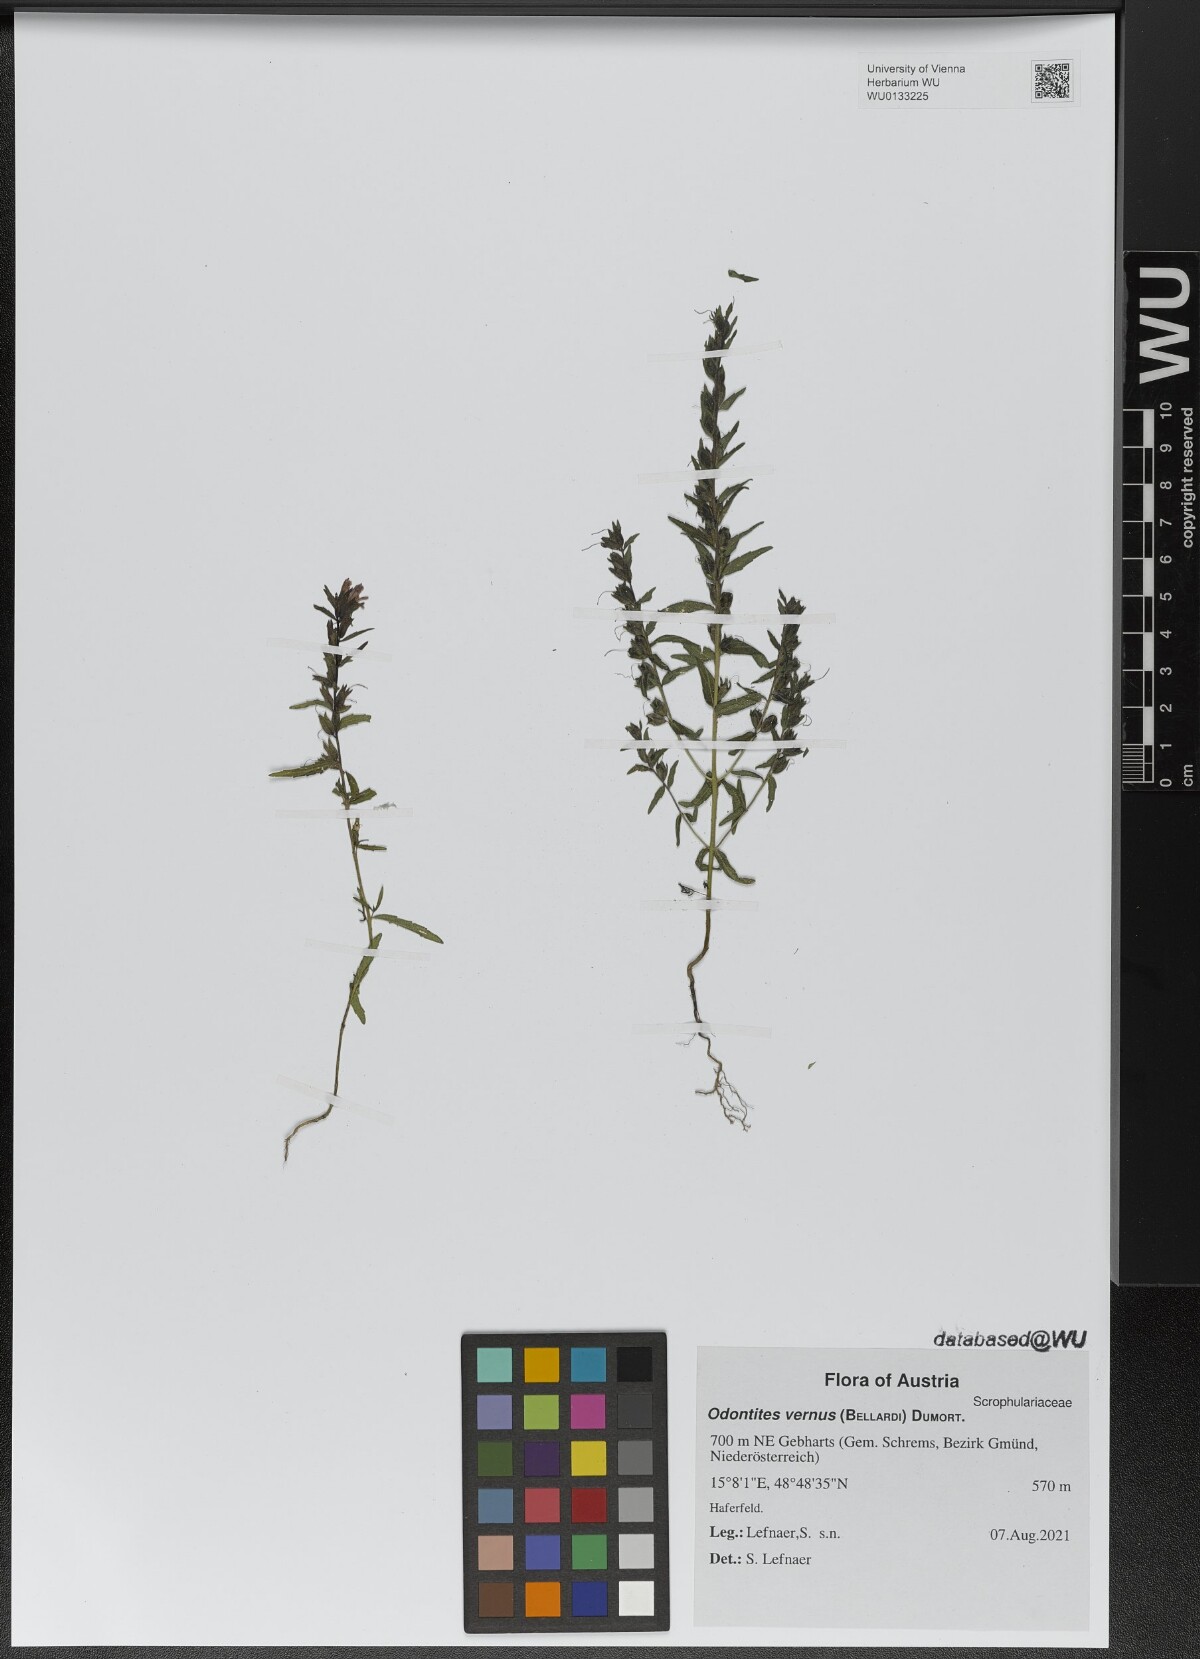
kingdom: Plantae
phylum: Tracheophyta
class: Magnoliopsida
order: Lamiales
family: Orobanchaceae
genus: Odontites
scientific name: Odontites vernus
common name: Red bartsia
